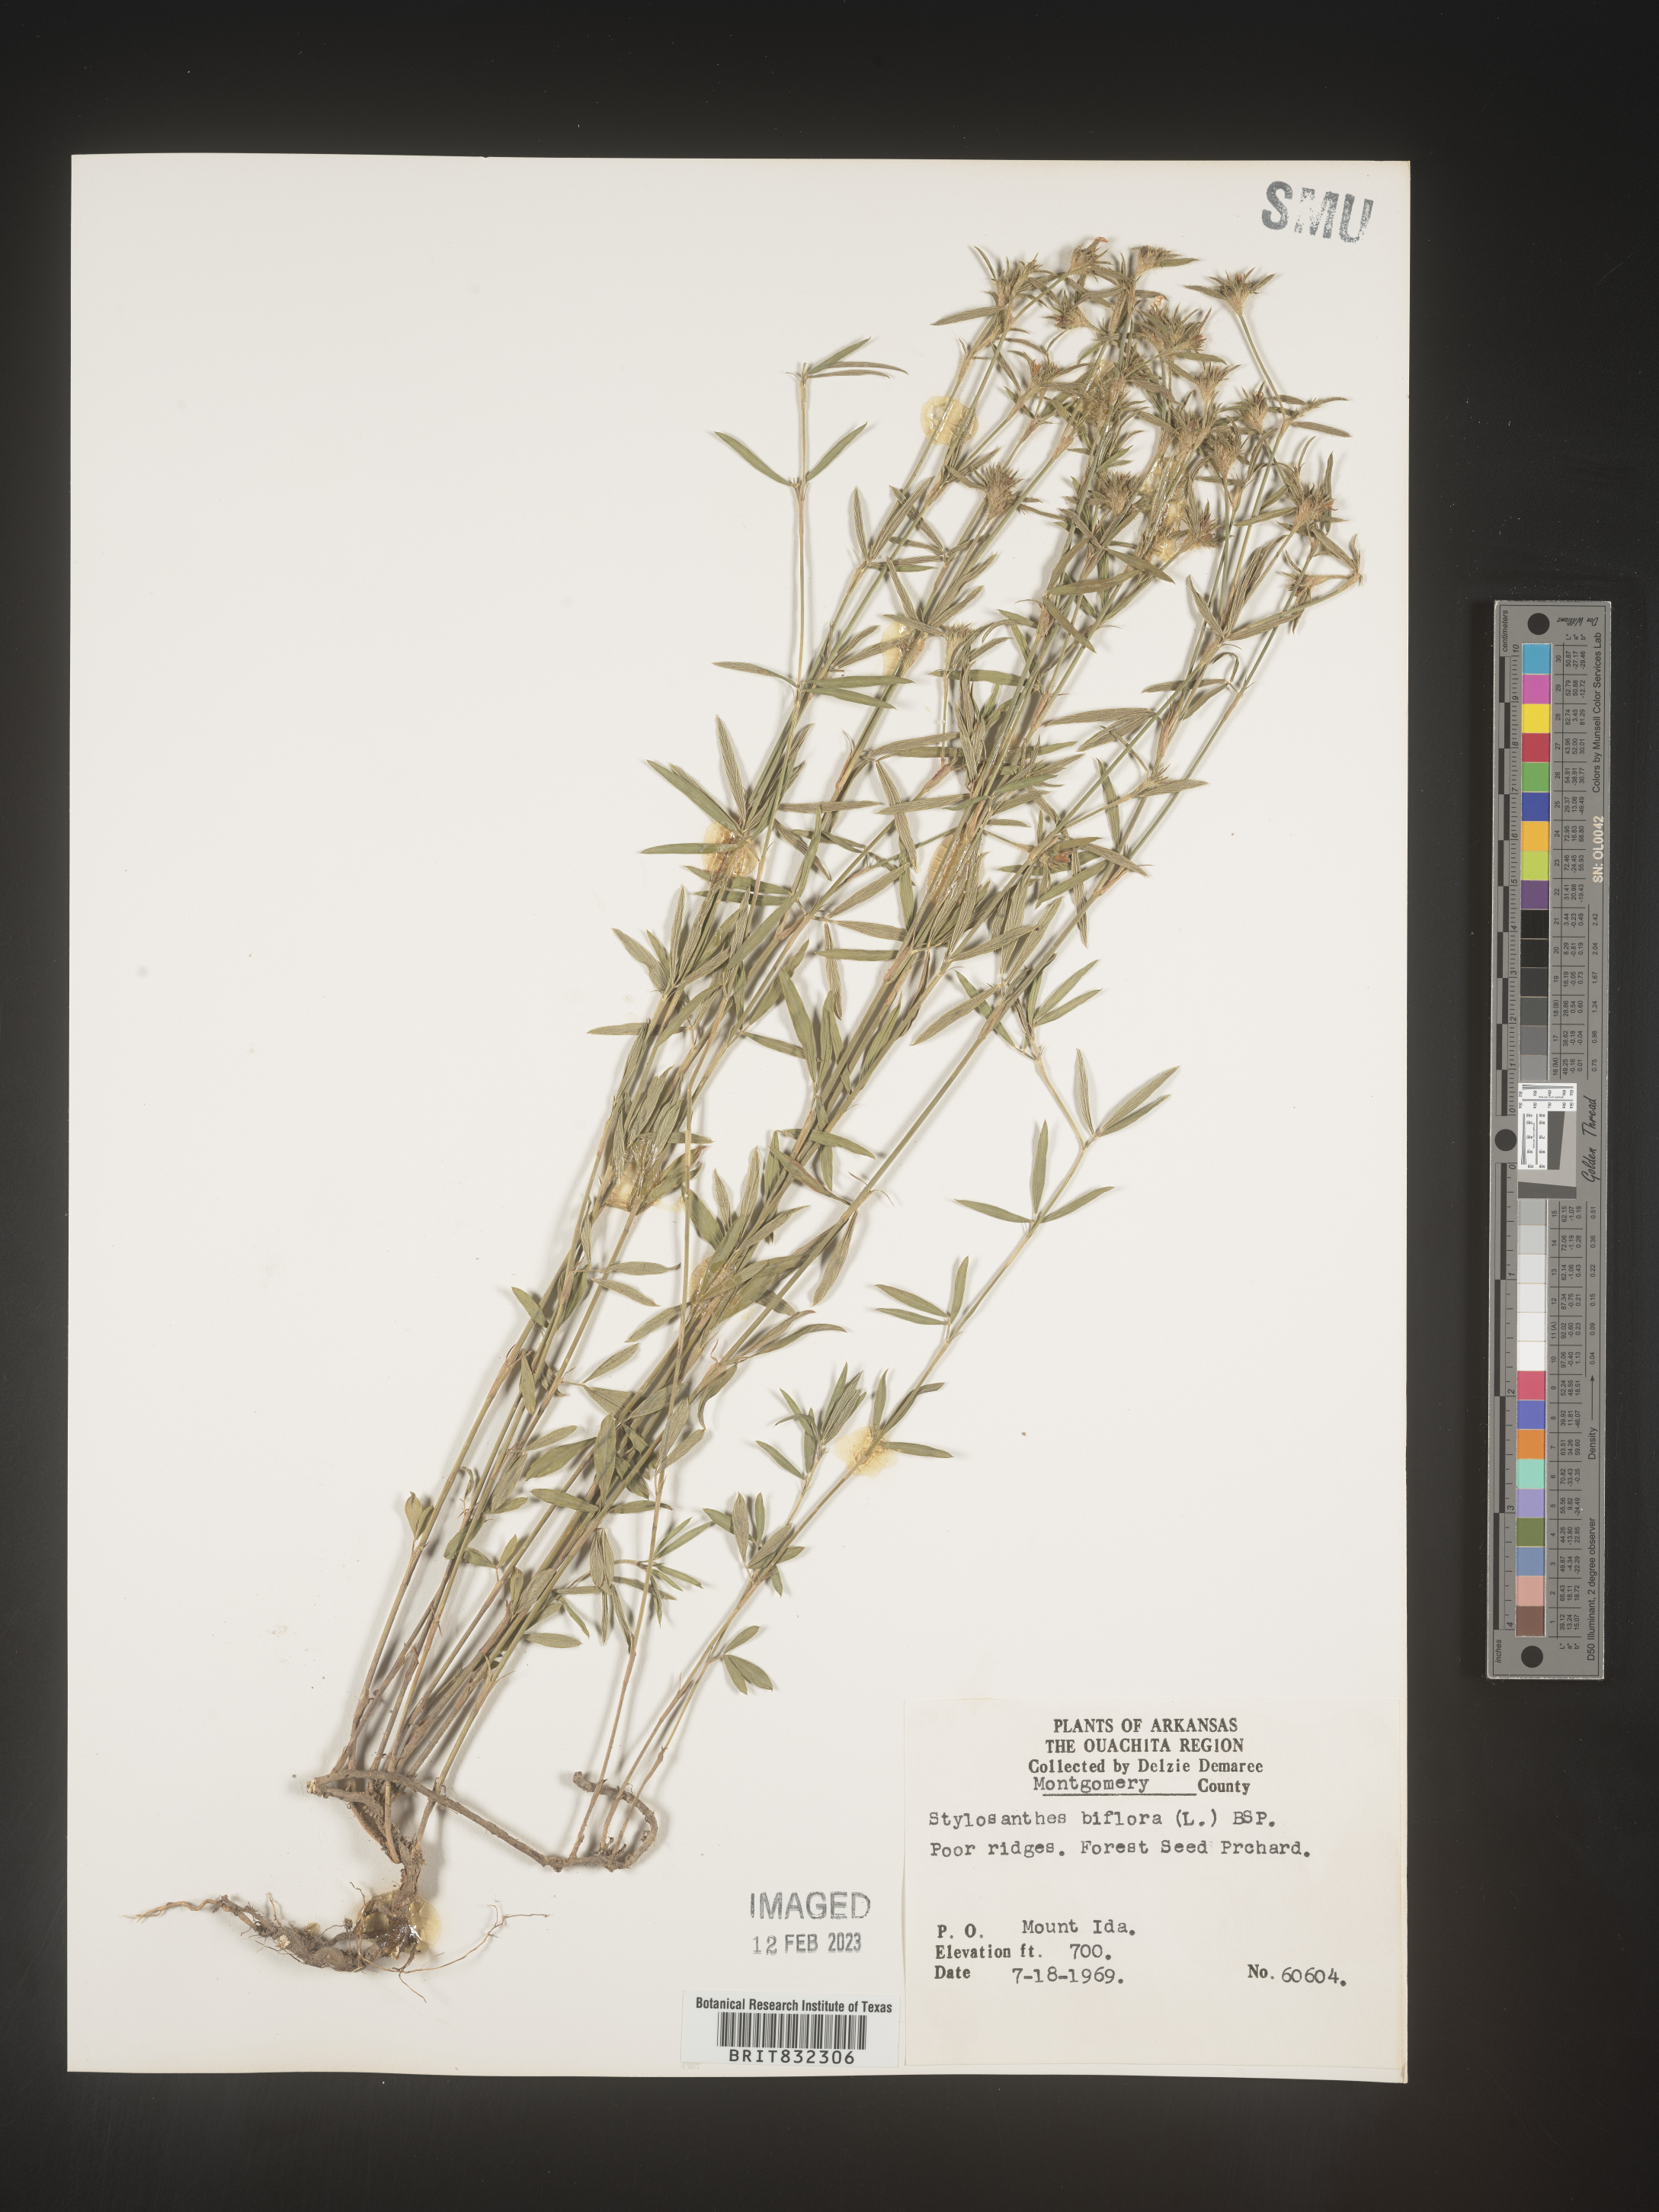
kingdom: Plantae
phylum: Tracheophyta
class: Magnoliopsida
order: Fabales
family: Fabaceae
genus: Stylosanthes
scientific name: Stylosanthes biflora
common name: Two-flower pencil-flower
